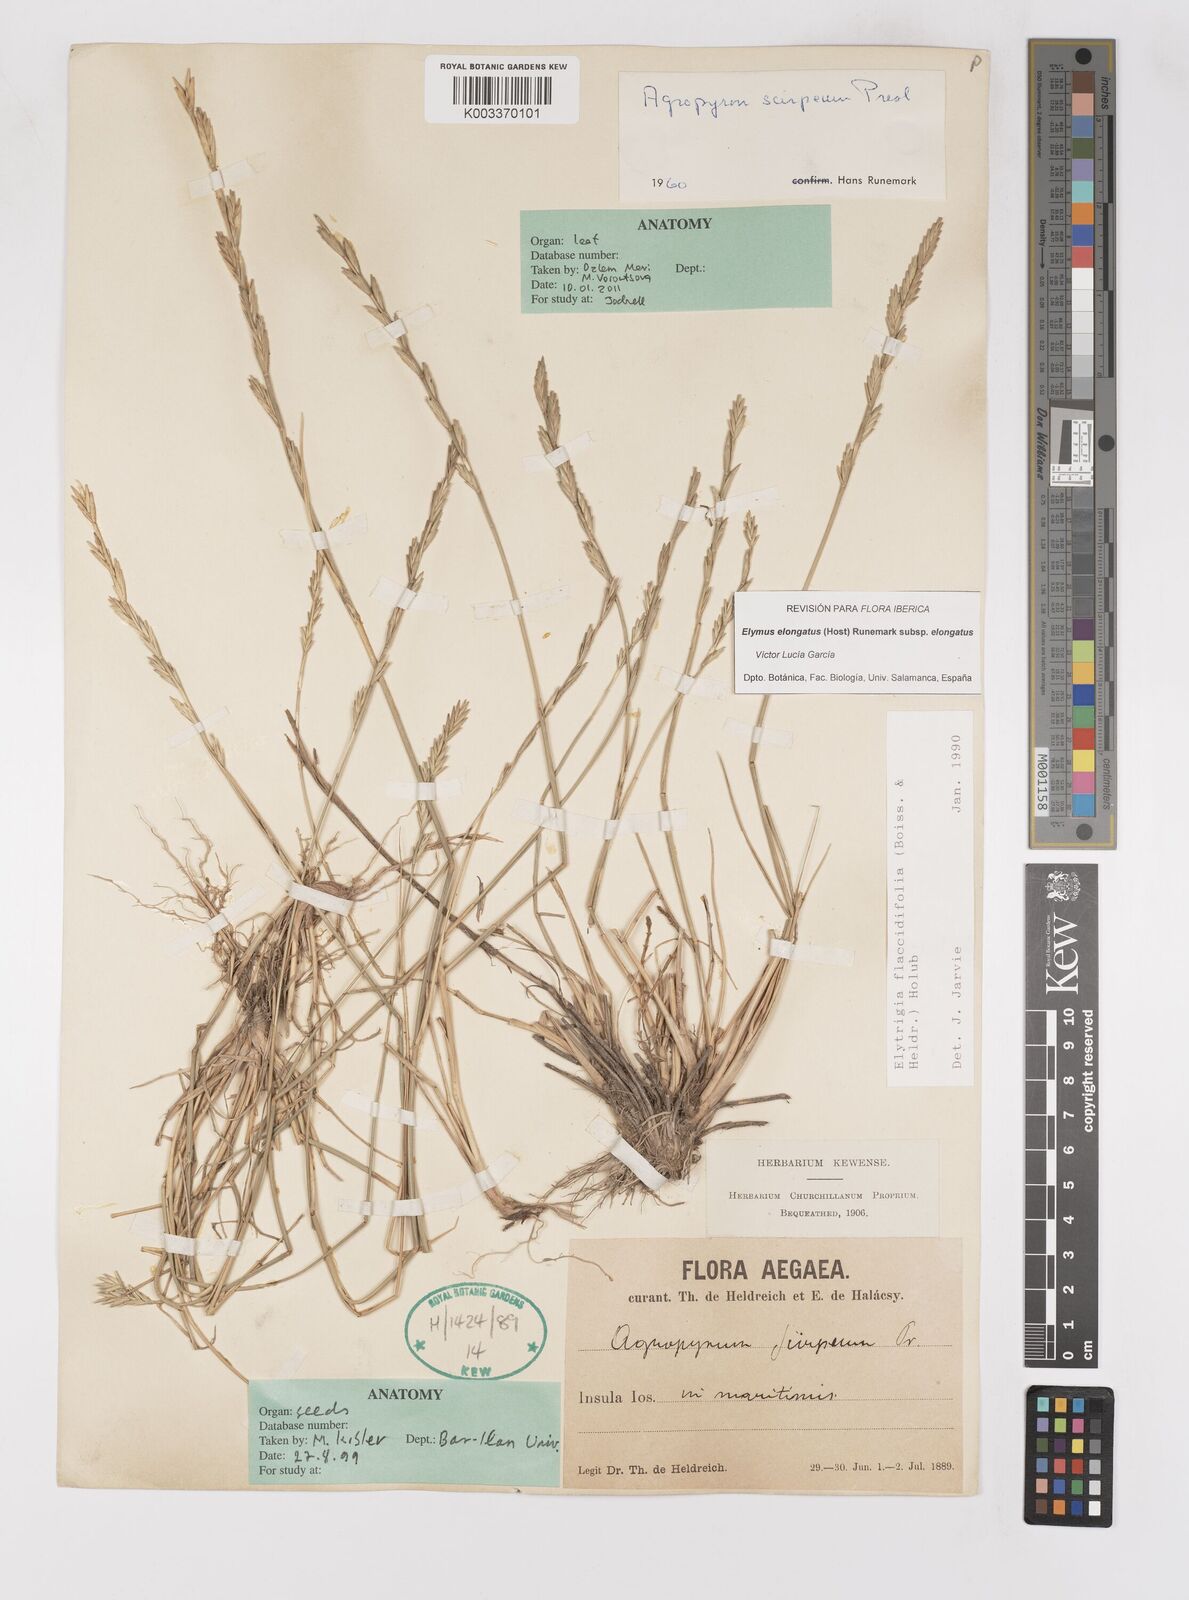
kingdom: Plantae
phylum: Tracheophyta
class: Liliopsida
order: Poales
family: Poaceae
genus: Thinopyrum
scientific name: Thinopyrum elongatum
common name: Tall wheatgrass
